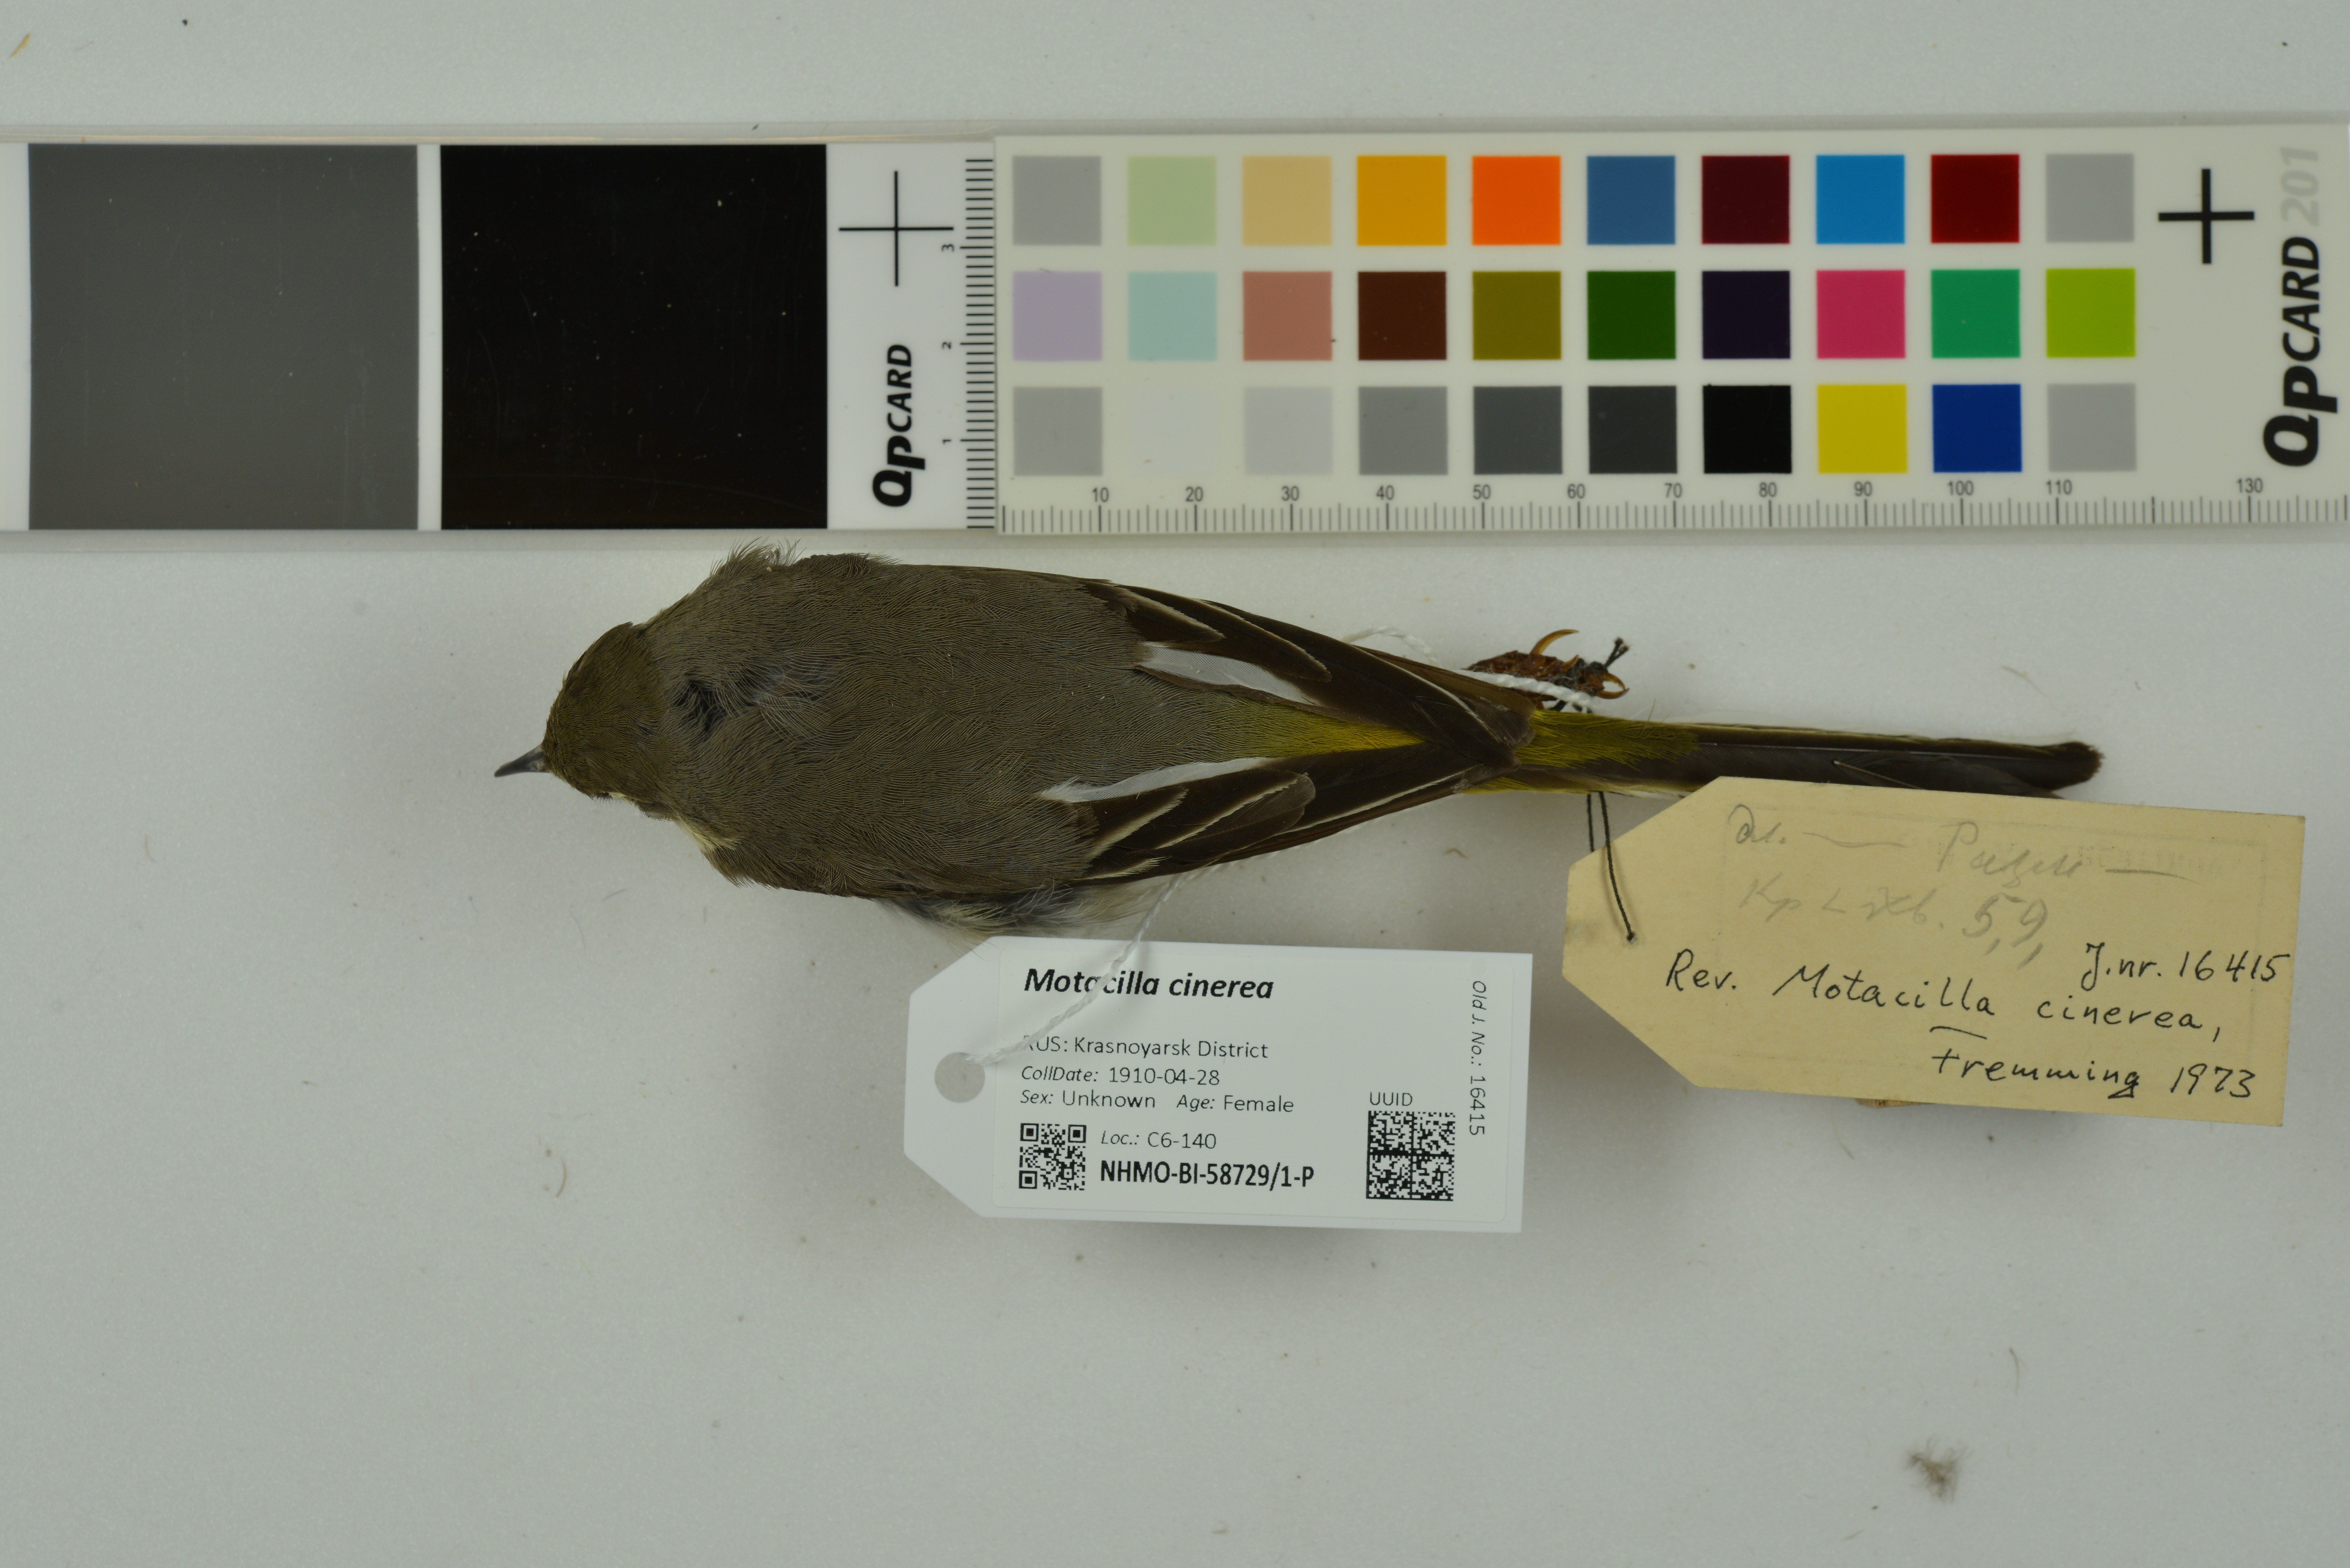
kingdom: Animalia
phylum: Chordata
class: Aves
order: Passeriformes
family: Motacillidae
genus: Motacilla
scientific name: Motacilla cinerea
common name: Grey wagtail
